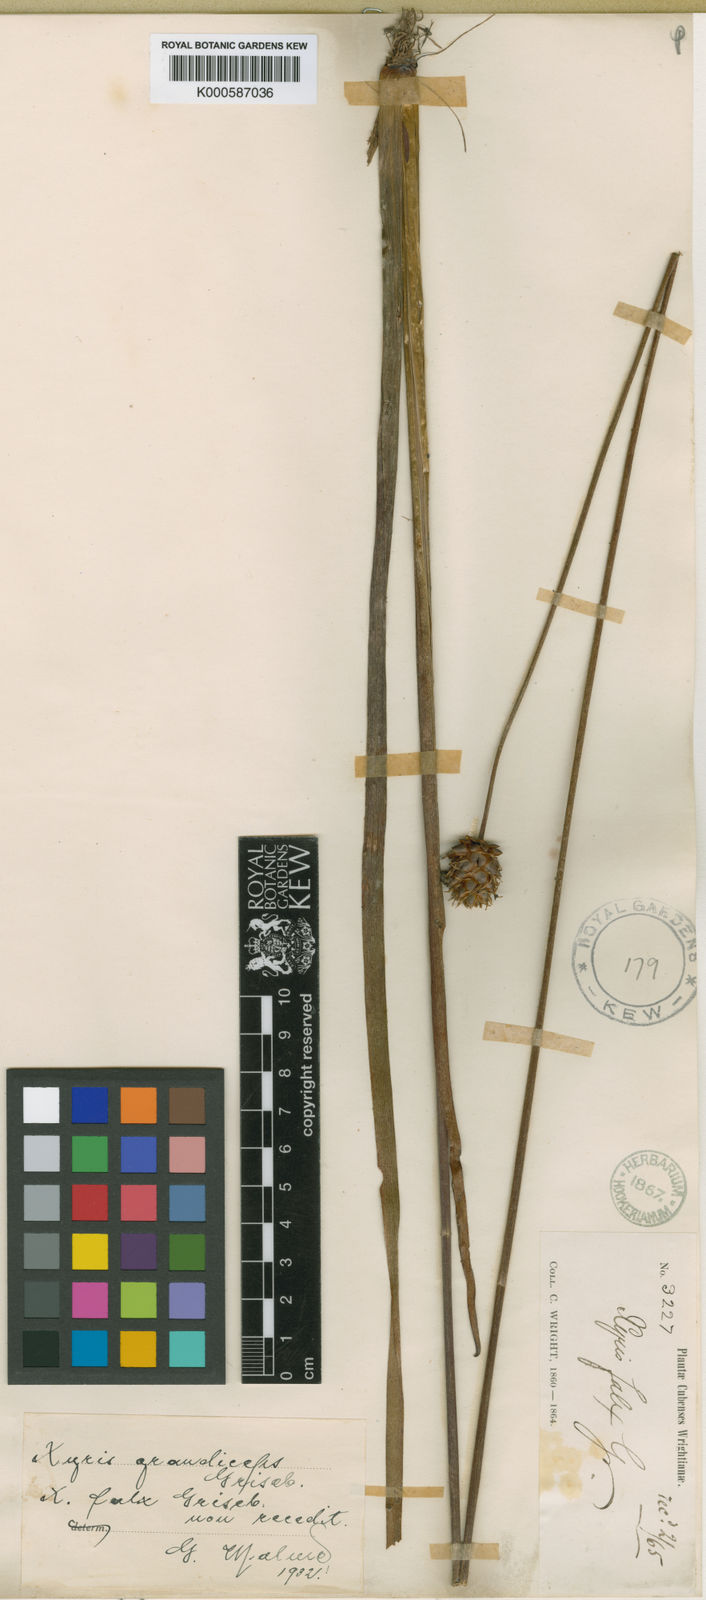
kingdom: Plantae
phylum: Tracheophyta
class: Liliopsida
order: Poales
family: Xyridaceae
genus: Xyris
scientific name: Xyris grandiceps
